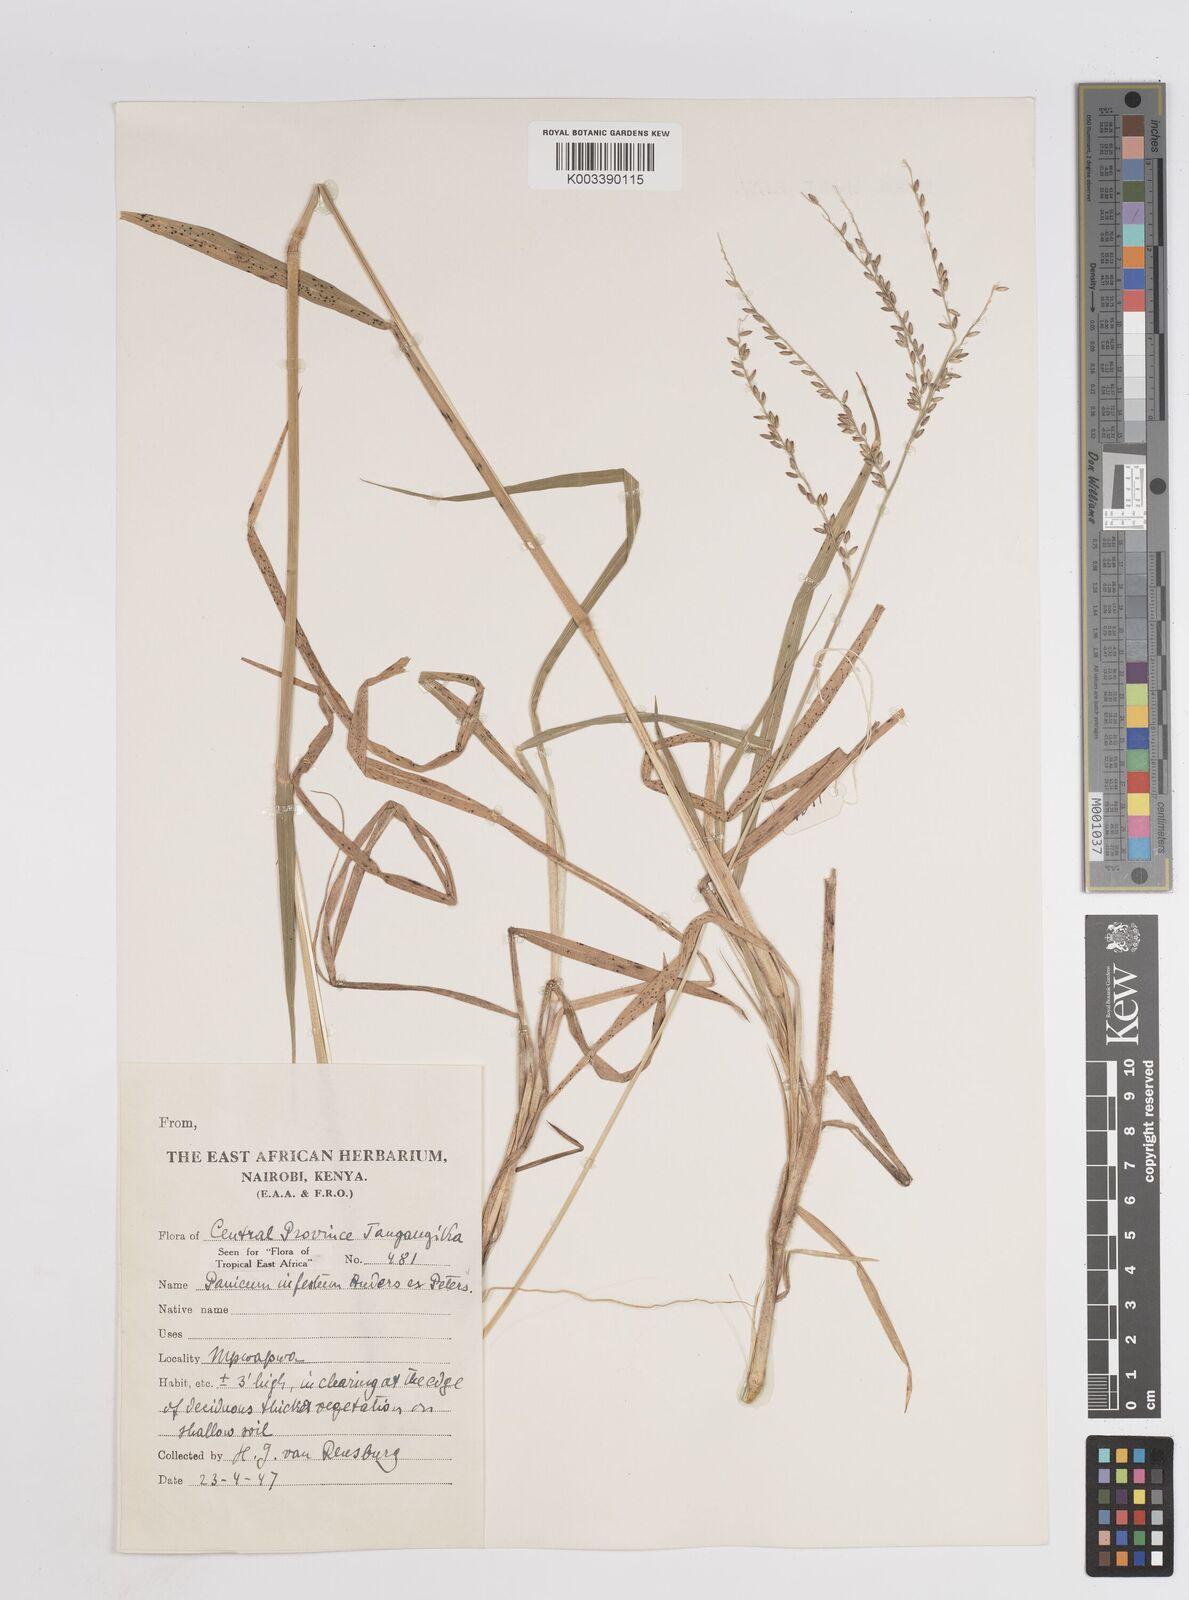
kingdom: Plantae
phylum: Tracheophyta
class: Liliopsida
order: Poales
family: Poaceae
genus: Megathyrsus
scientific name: Megathyrsus infestus
